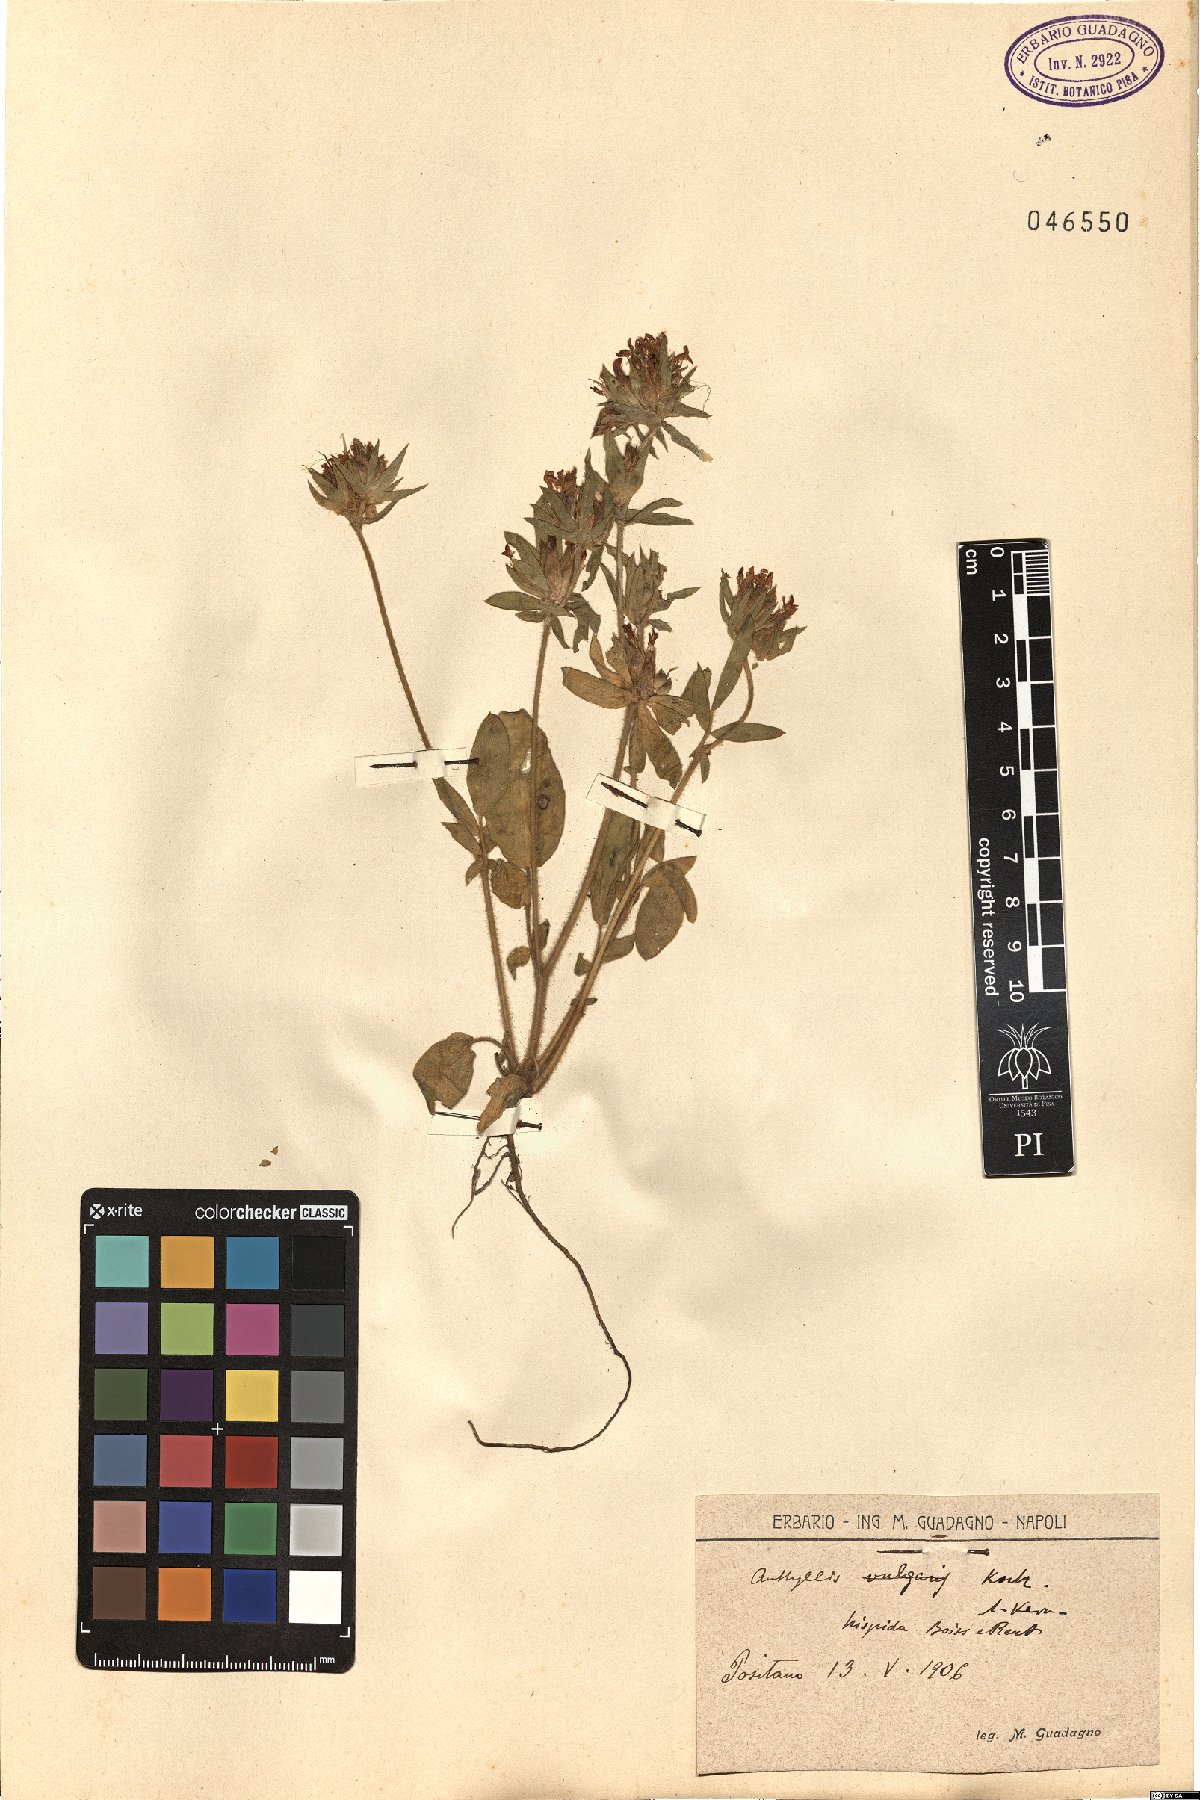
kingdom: Plantae
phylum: Tracheophyta
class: Magnoliopsida
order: Fabales
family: Fabaceae
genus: Anthyllis
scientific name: Anthyllis vulneraria
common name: Kidney vetch
